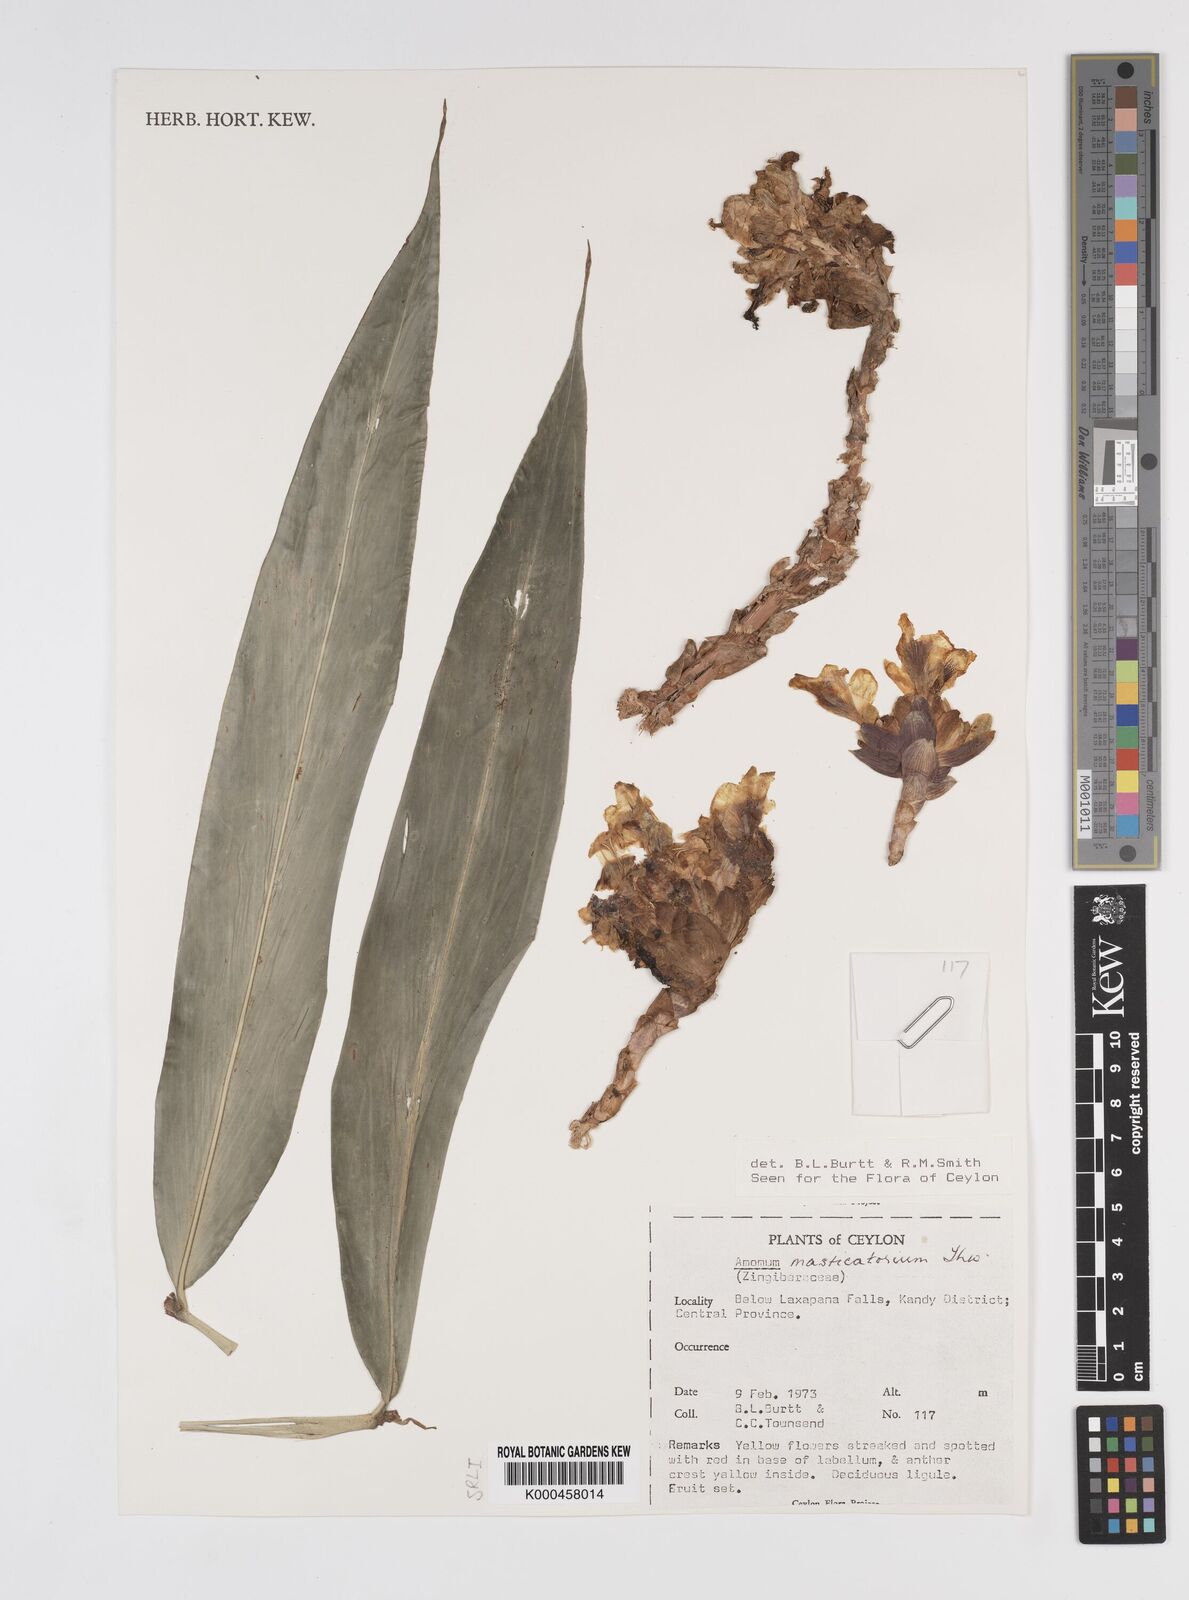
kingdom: Plantae
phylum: Tracheophyta
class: Liliopsida
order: Zingiberales
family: Zingiberaceae
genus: Meistera
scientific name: Meistera masticatorium
